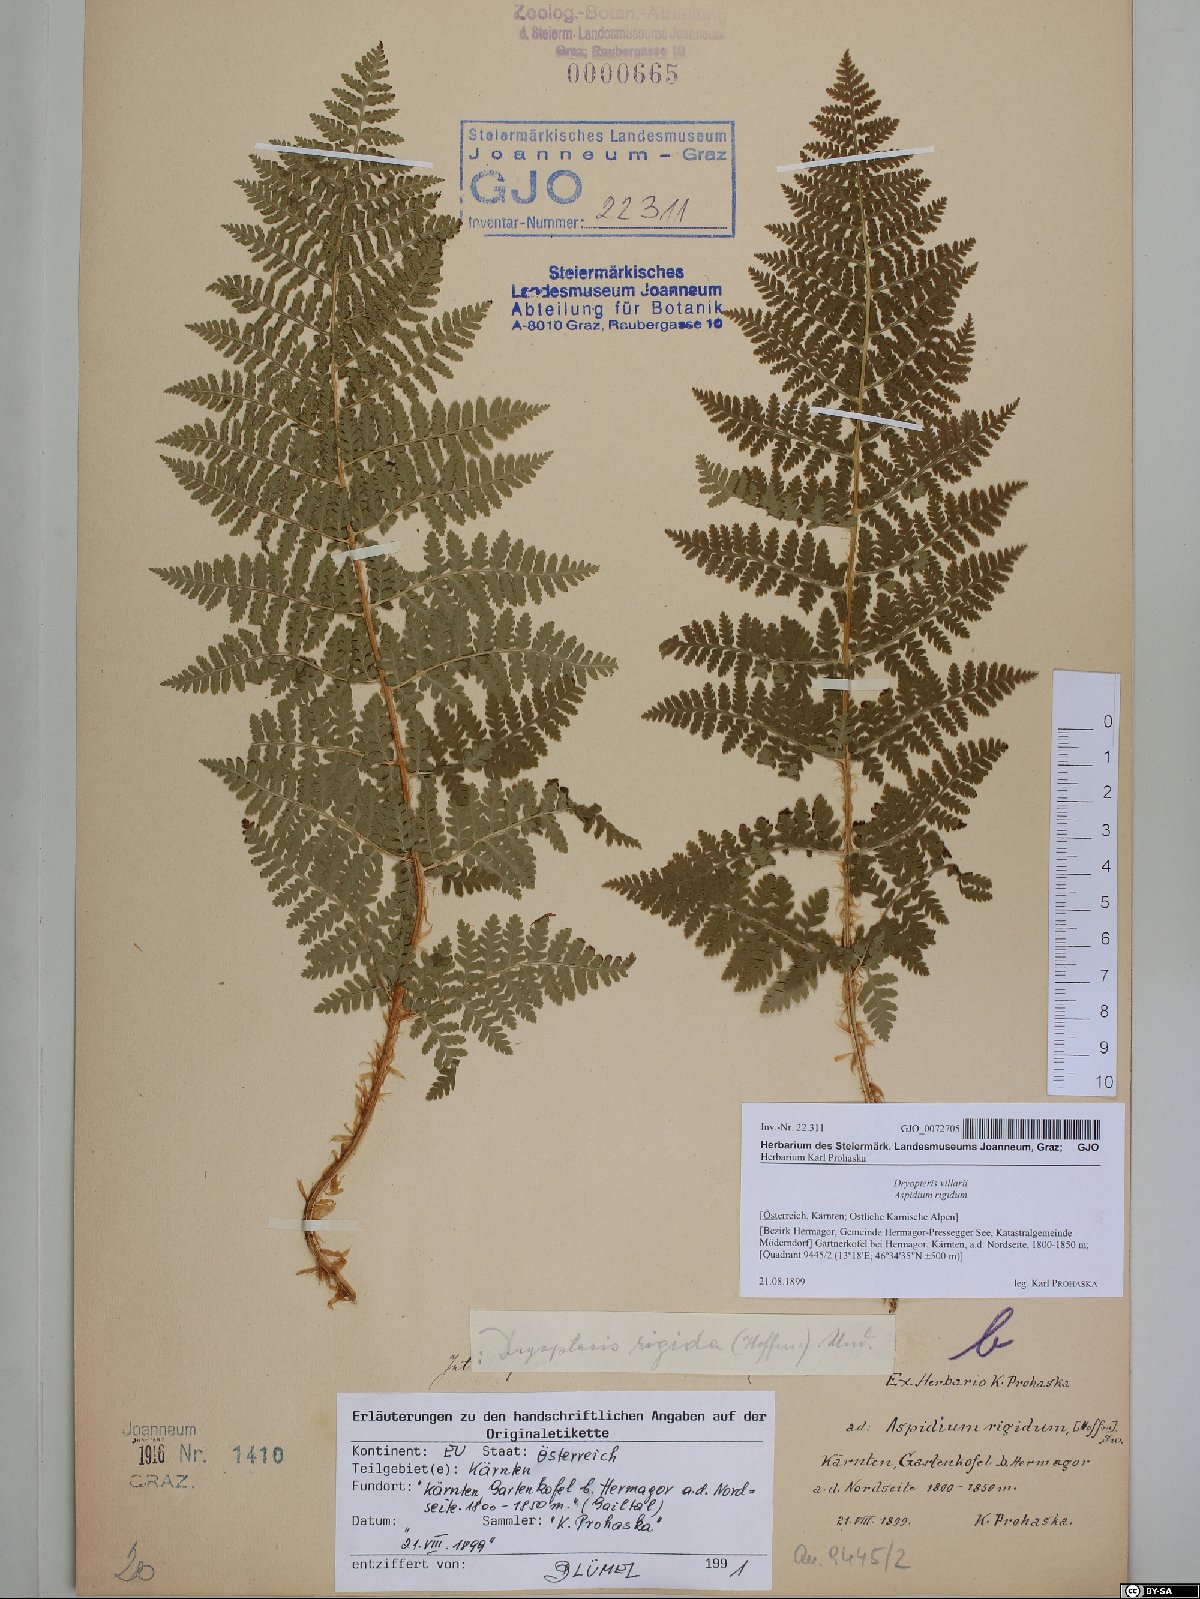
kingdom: Plantae
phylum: Tracheophyta
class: Polypodiopsida
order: Polypodiales
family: Dryopteridaceae
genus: Dryopteris
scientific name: Dryopteris villarii
